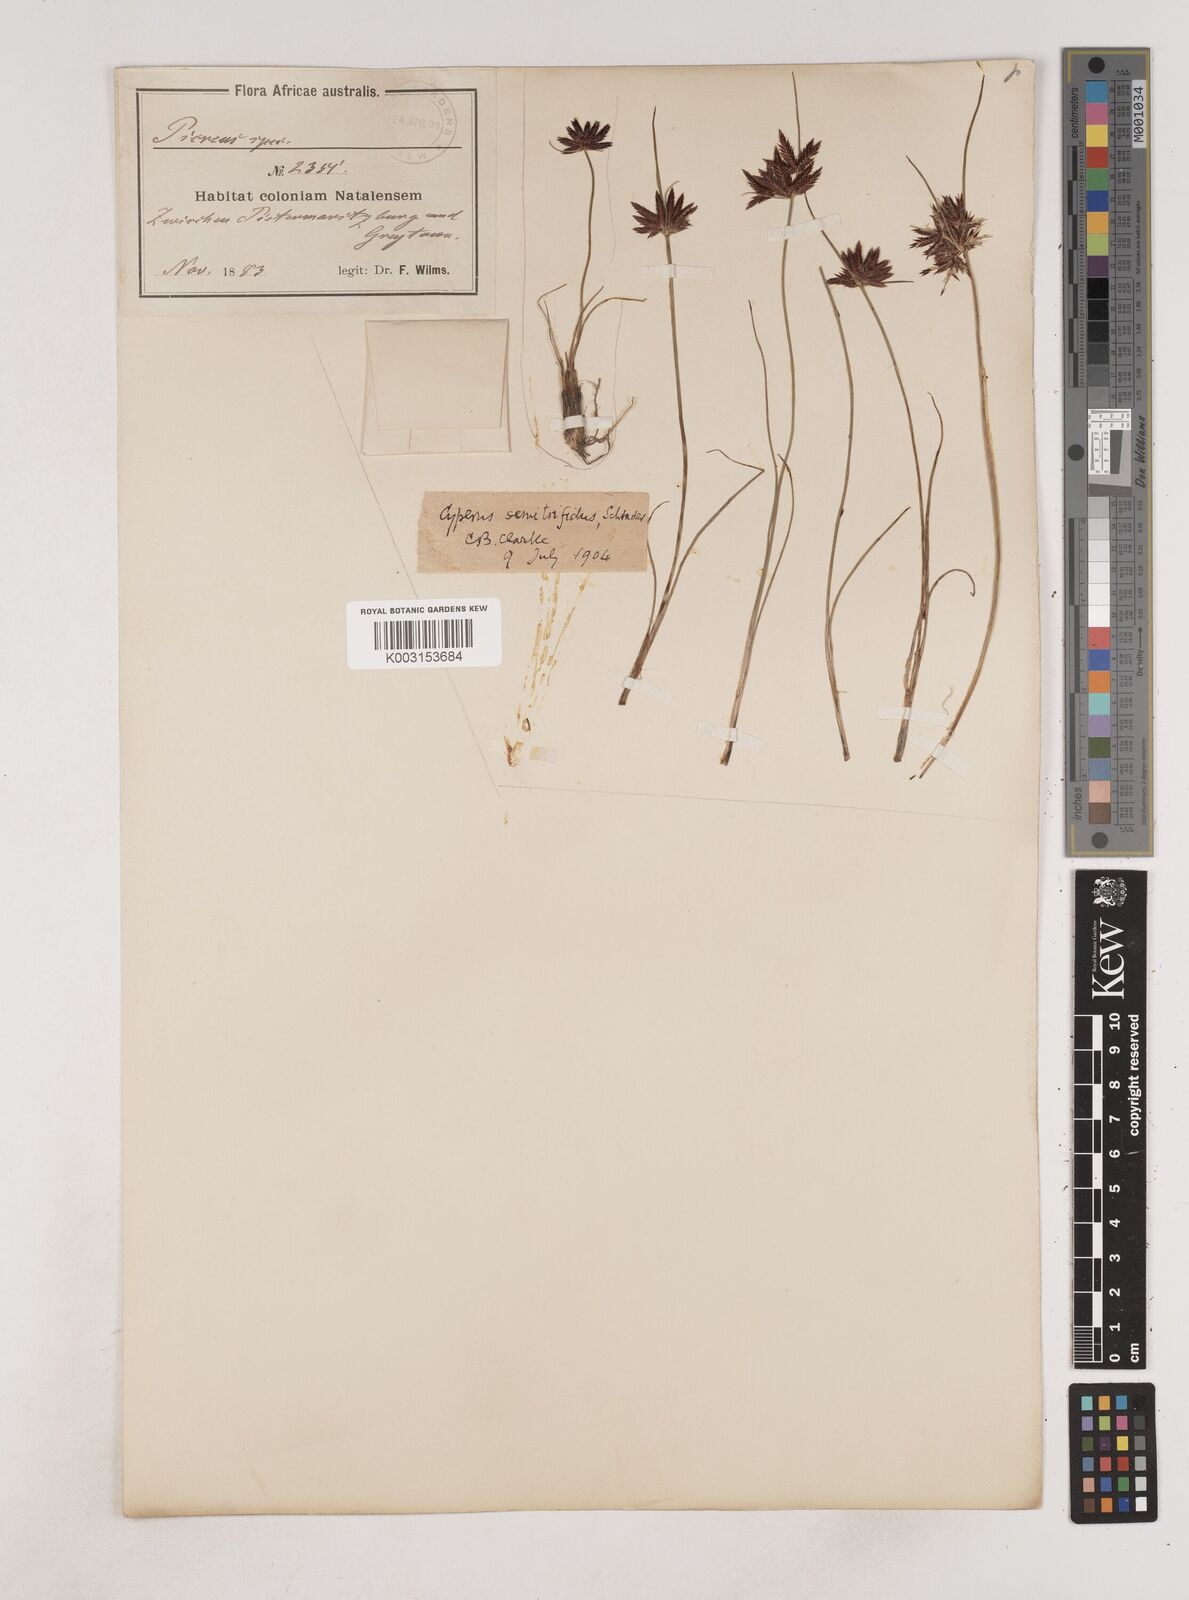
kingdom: Plantae
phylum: Tracheophyta
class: Liliopsida
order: Poales
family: Cyperaceae
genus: Cyperus
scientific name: Cyperus semitrifidus
